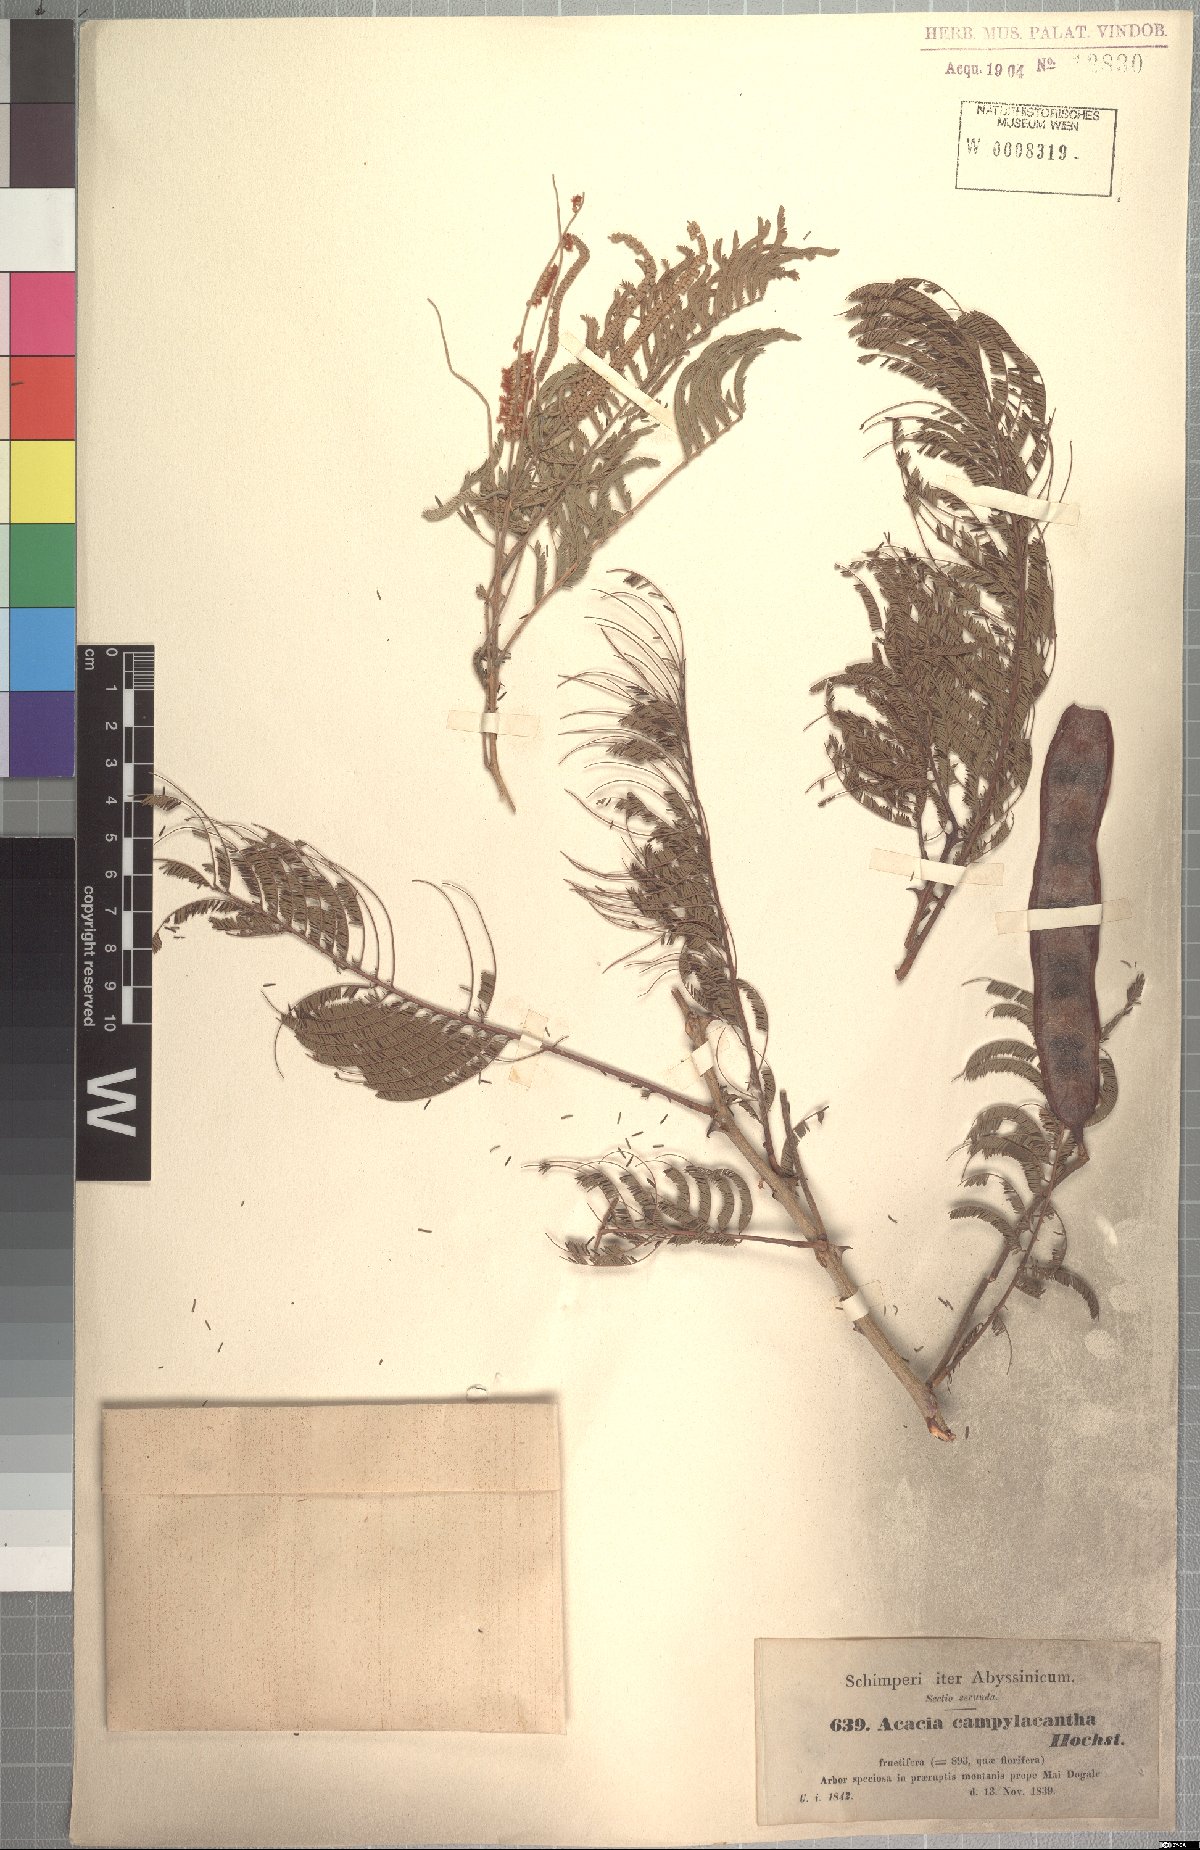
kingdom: Plantae
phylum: Tracheophyta
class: Magnoliopsida
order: Fabales
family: Fabaceae
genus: Senegalia
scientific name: Senegalia polyacantha
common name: Whitethorn
